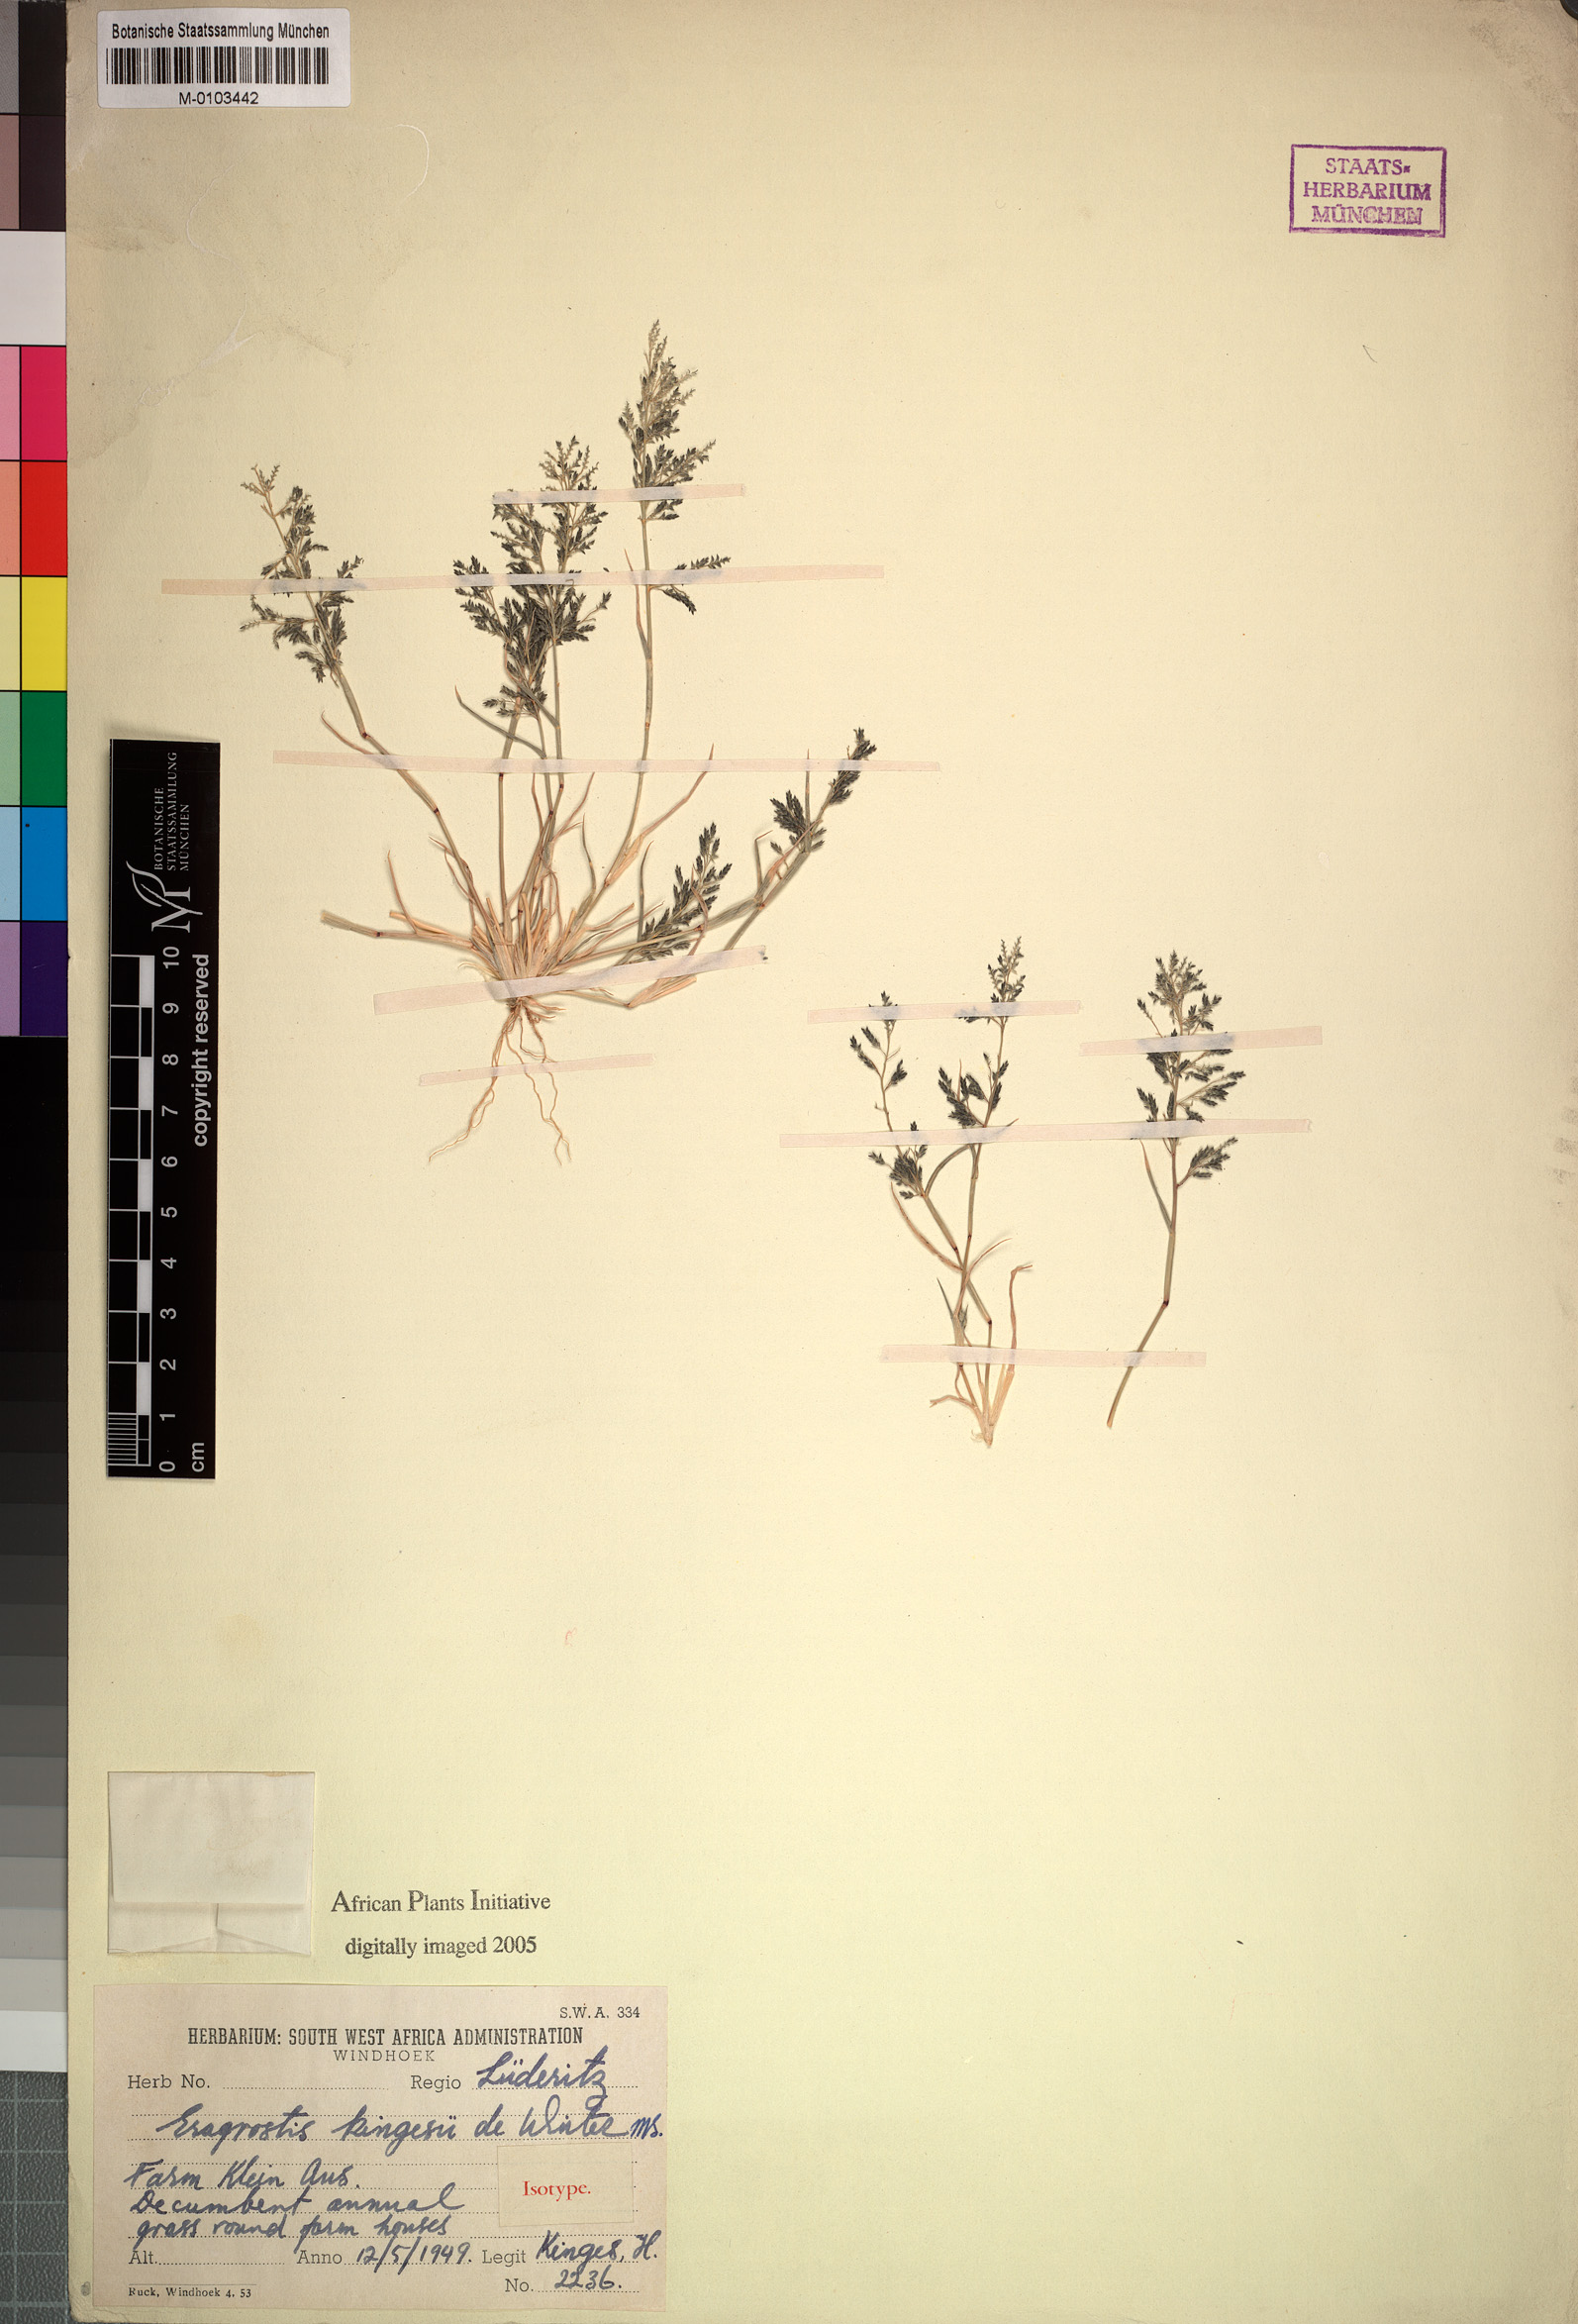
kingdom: Plantae
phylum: Tracheophyta
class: Liliopsida
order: Poales
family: Poaceae
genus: Eragrostis
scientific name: Eragrostis kingesii
